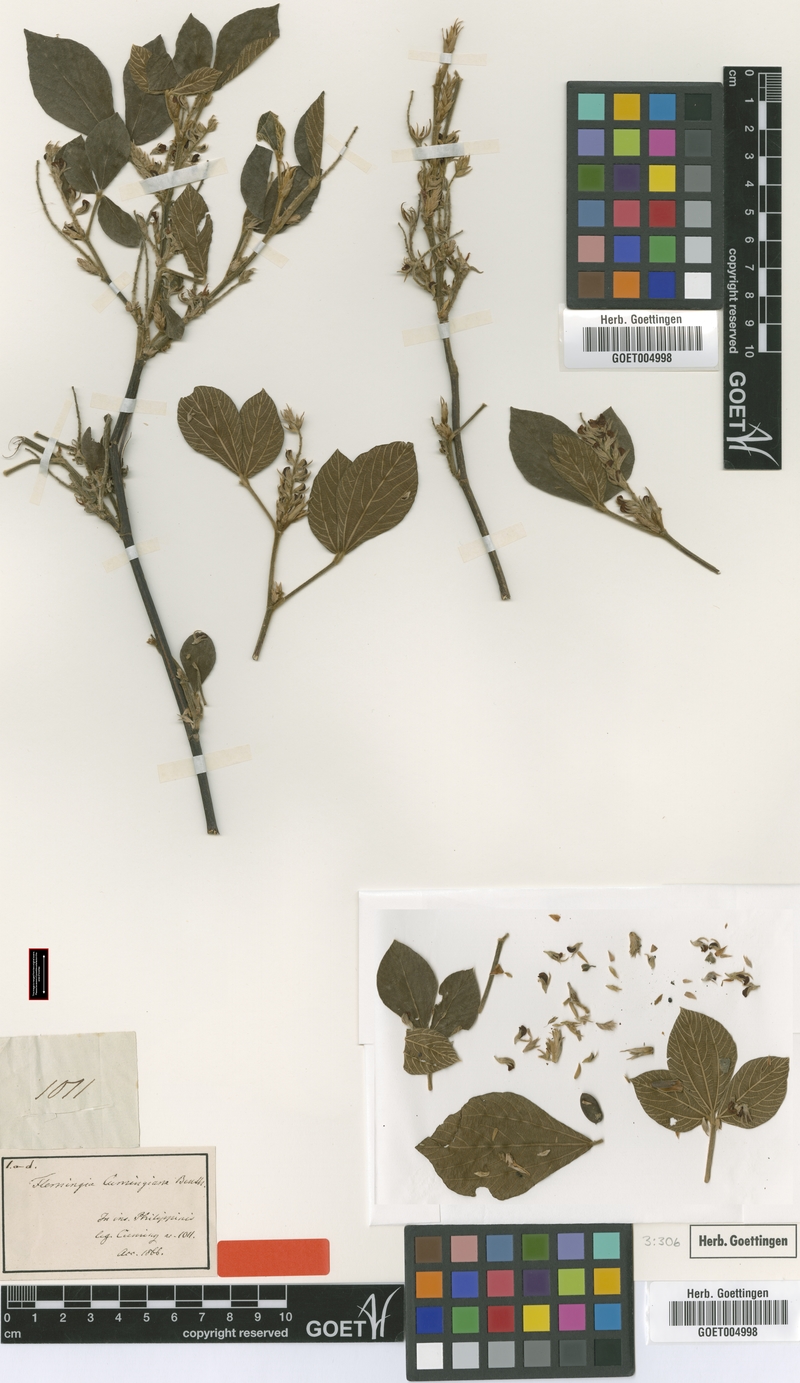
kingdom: Plantae
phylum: Tracheophyta
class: Magnoliopsida
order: Fabales
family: Fabaceae
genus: Flemingia
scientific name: Flemingia cumingiana
